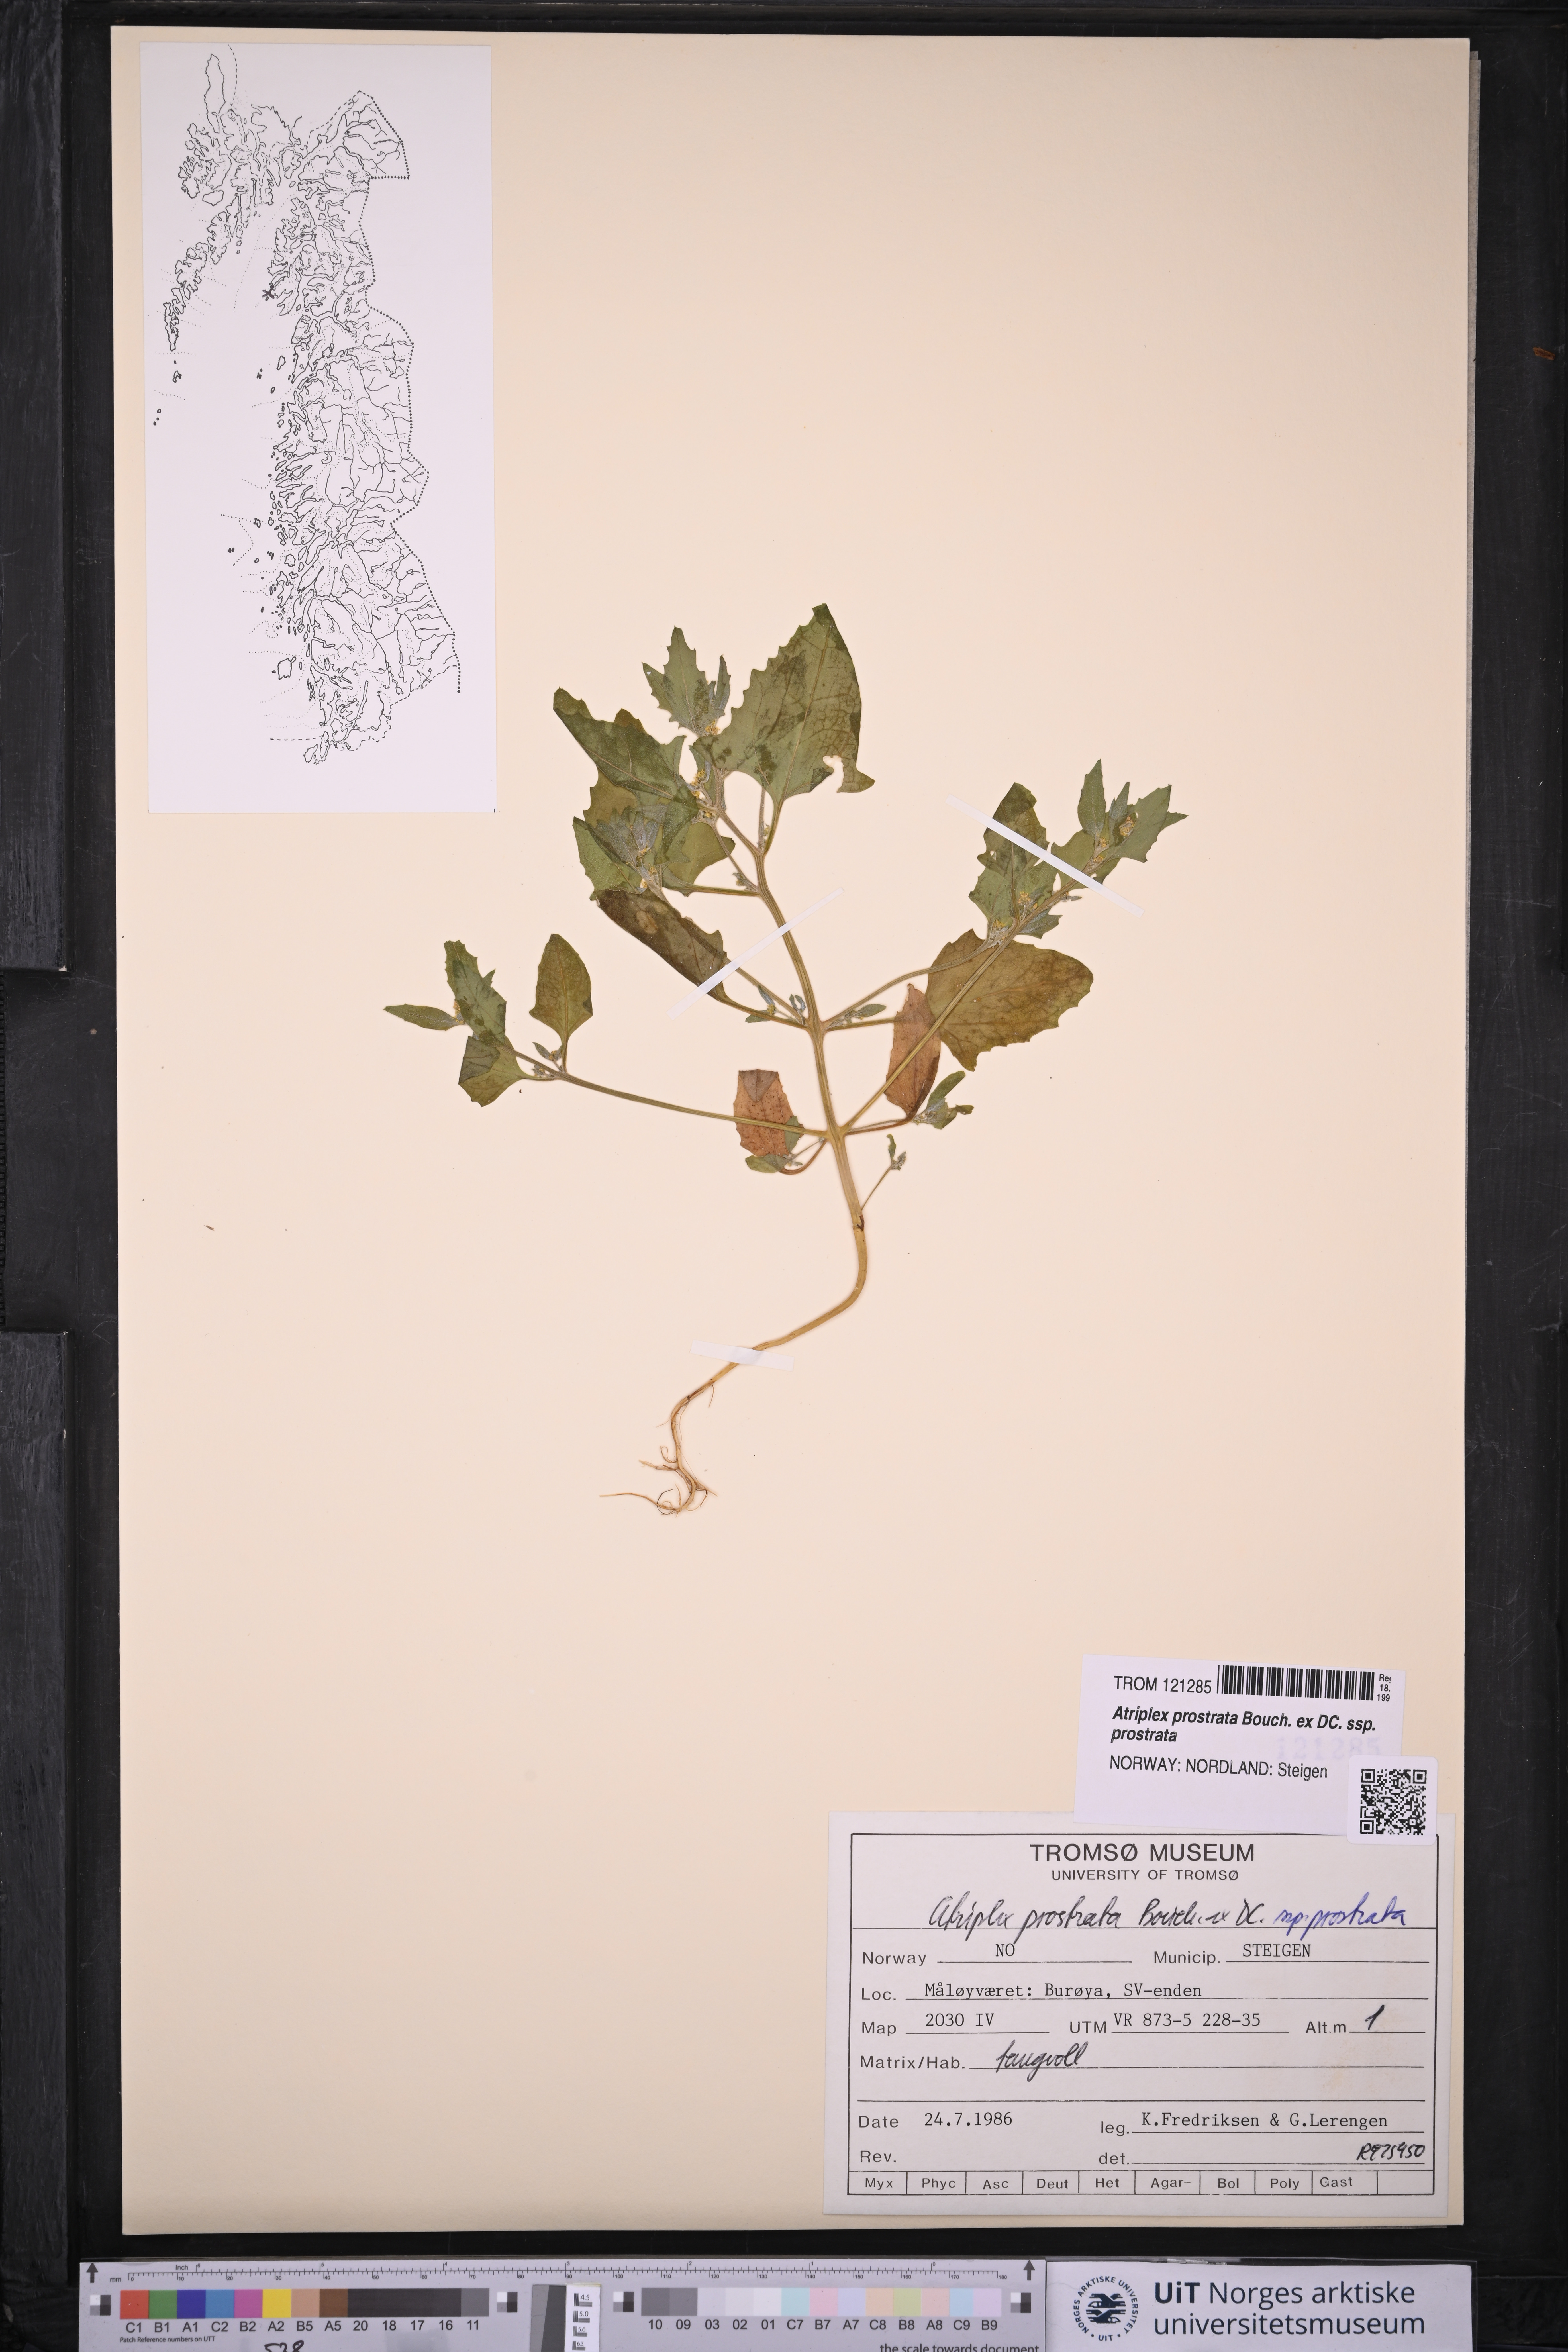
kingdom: Plantae
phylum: Tracheophyta
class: Magnoliopsida
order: Caryophyllales
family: Amaranthaceae
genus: Atriplex
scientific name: Atriplex prostrata
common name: Spear-leaved orache
